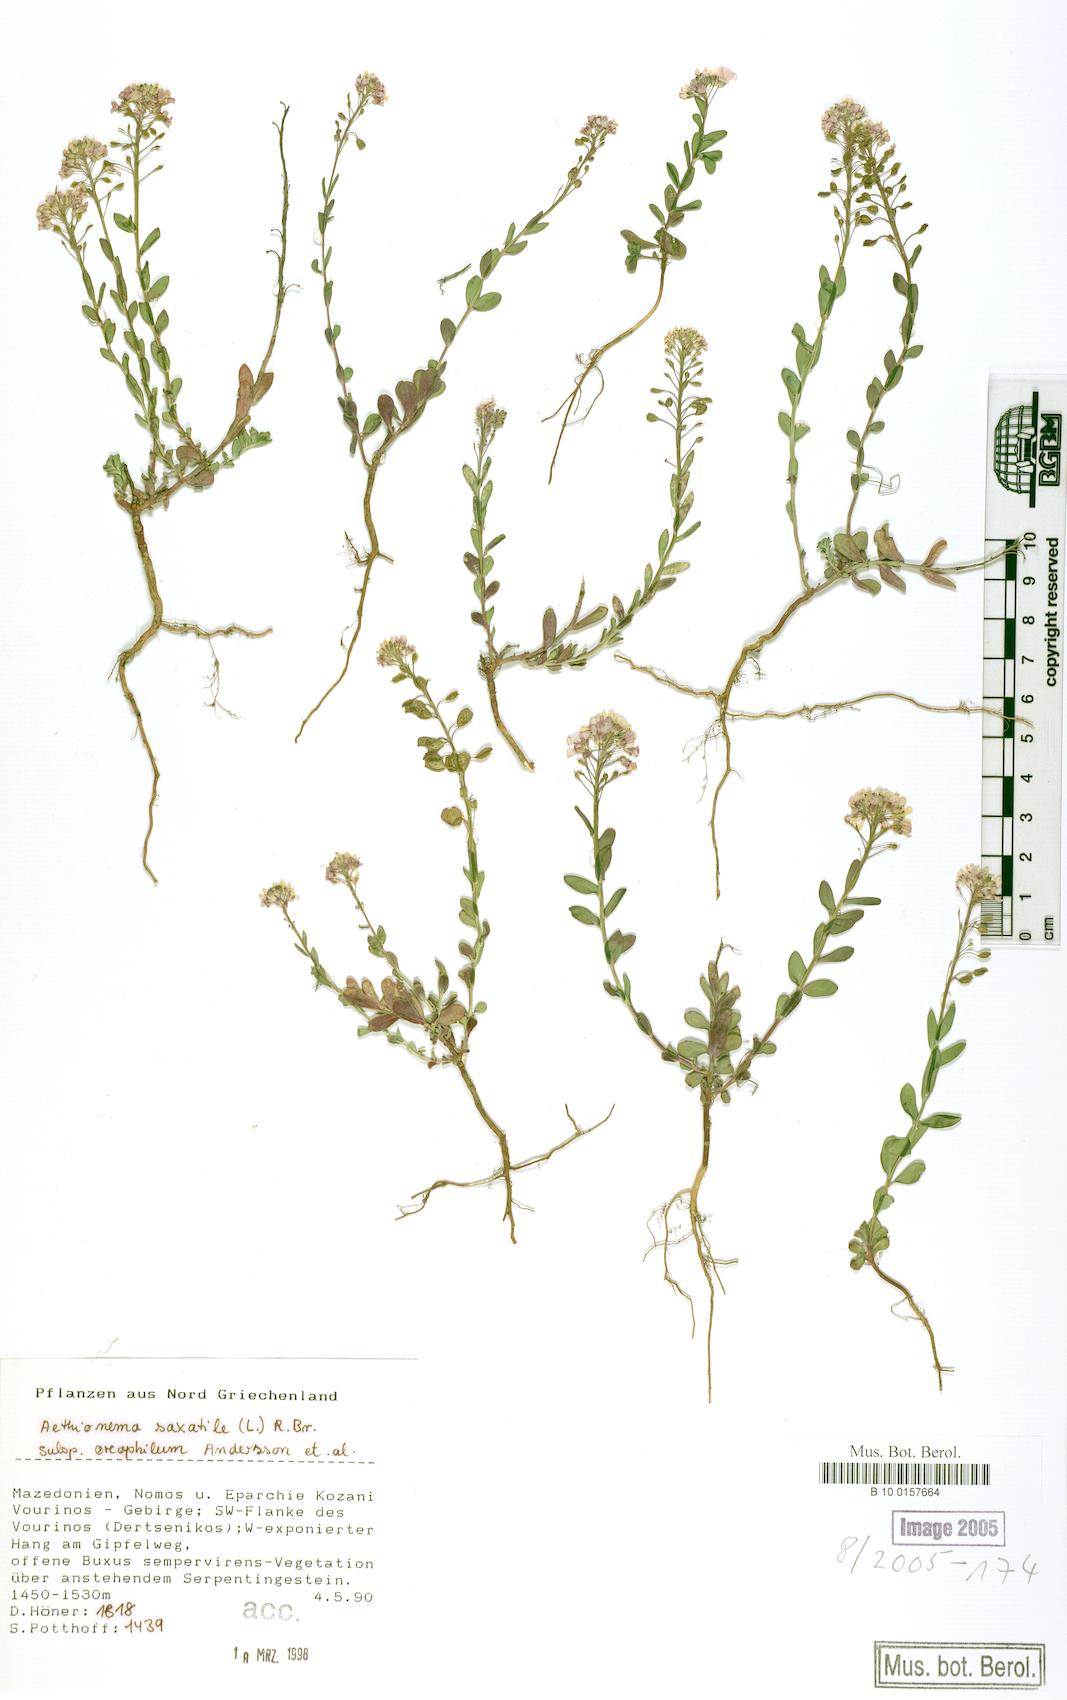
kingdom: Plantae
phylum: Tracheophyta
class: Magnoliopsida
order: Brassicales
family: Brassicaceae
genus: Aethionema
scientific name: Aethionema saxatile
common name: Burnt candytuft
